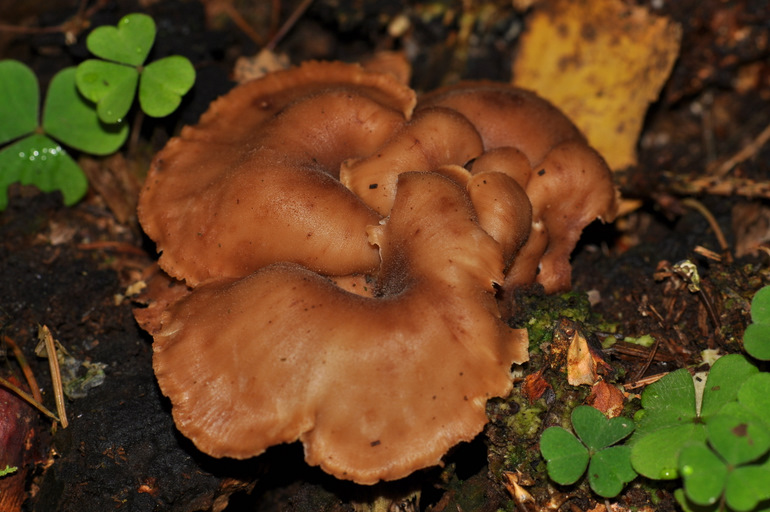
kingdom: Fungi
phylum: Basidiomycota
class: Agaricomycetes
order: Russulales
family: Auriscalpiaceae
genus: Lentinellus
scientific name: Lentinellus cochleatus
